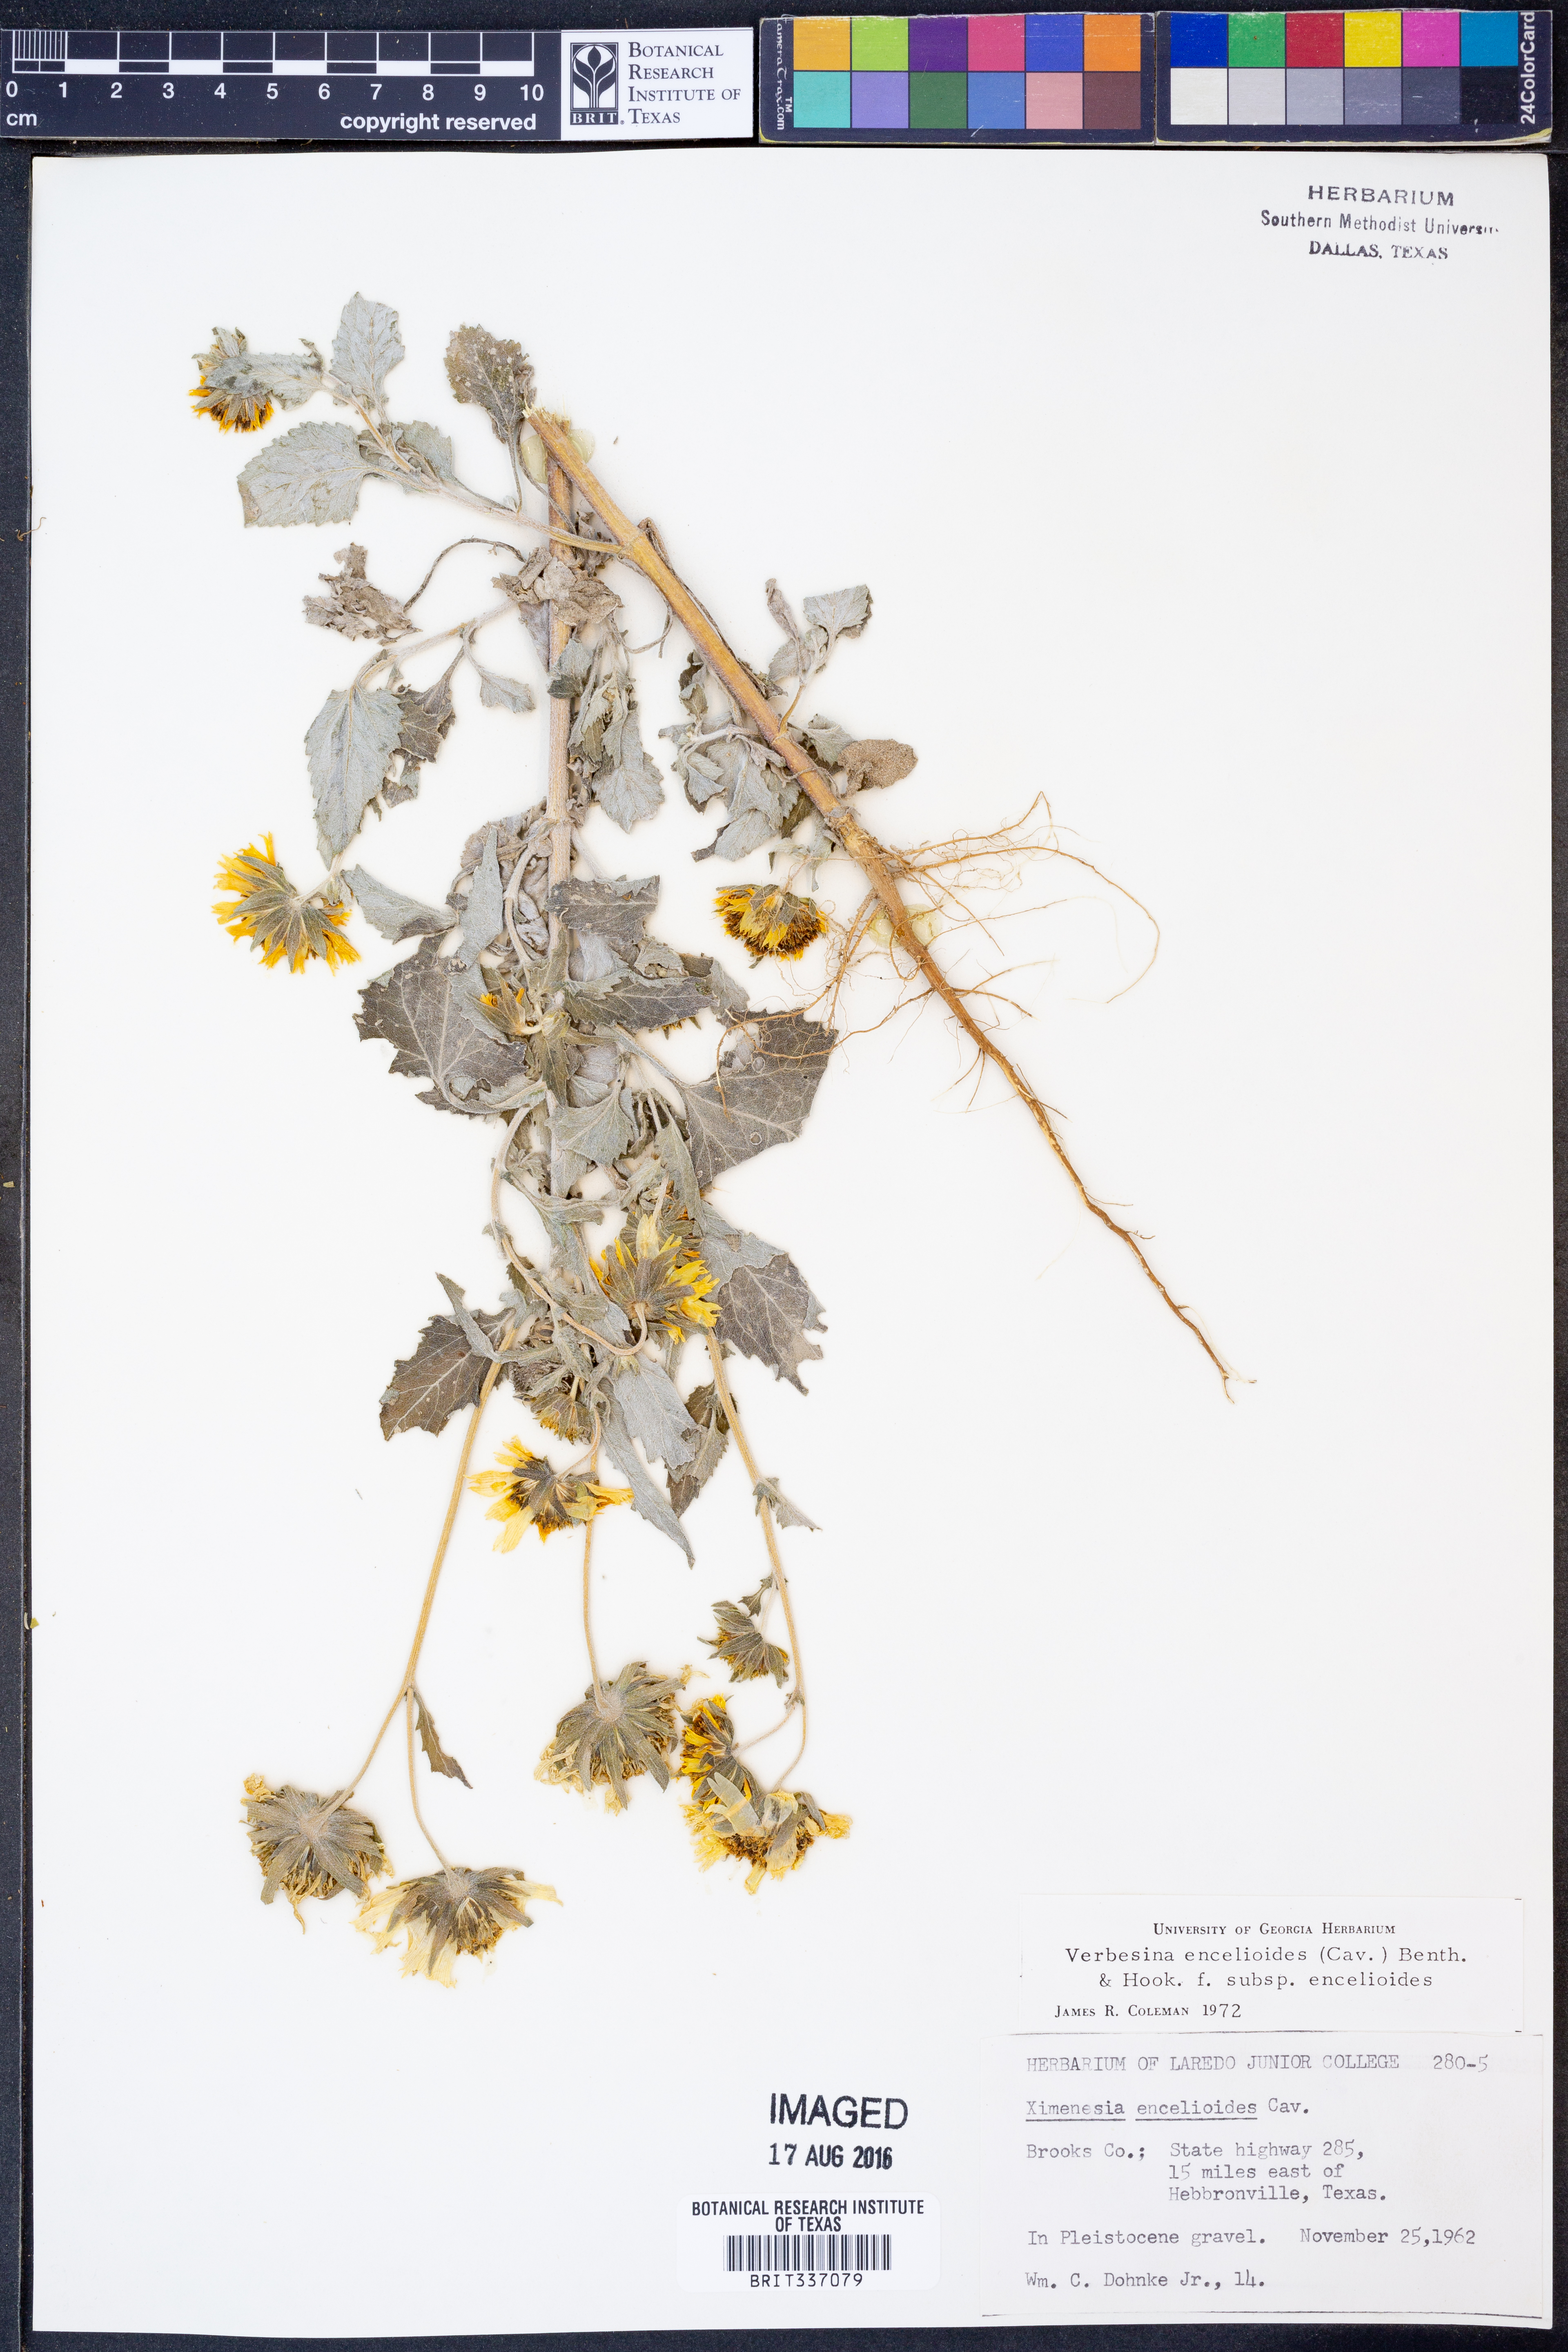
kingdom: Plantae
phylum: Tracheophyta
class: Magnoliopsida
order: Asterales
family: Asteraceae
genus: Verbesina
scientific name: Verbesina encelioides
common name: Golden crownbeard
